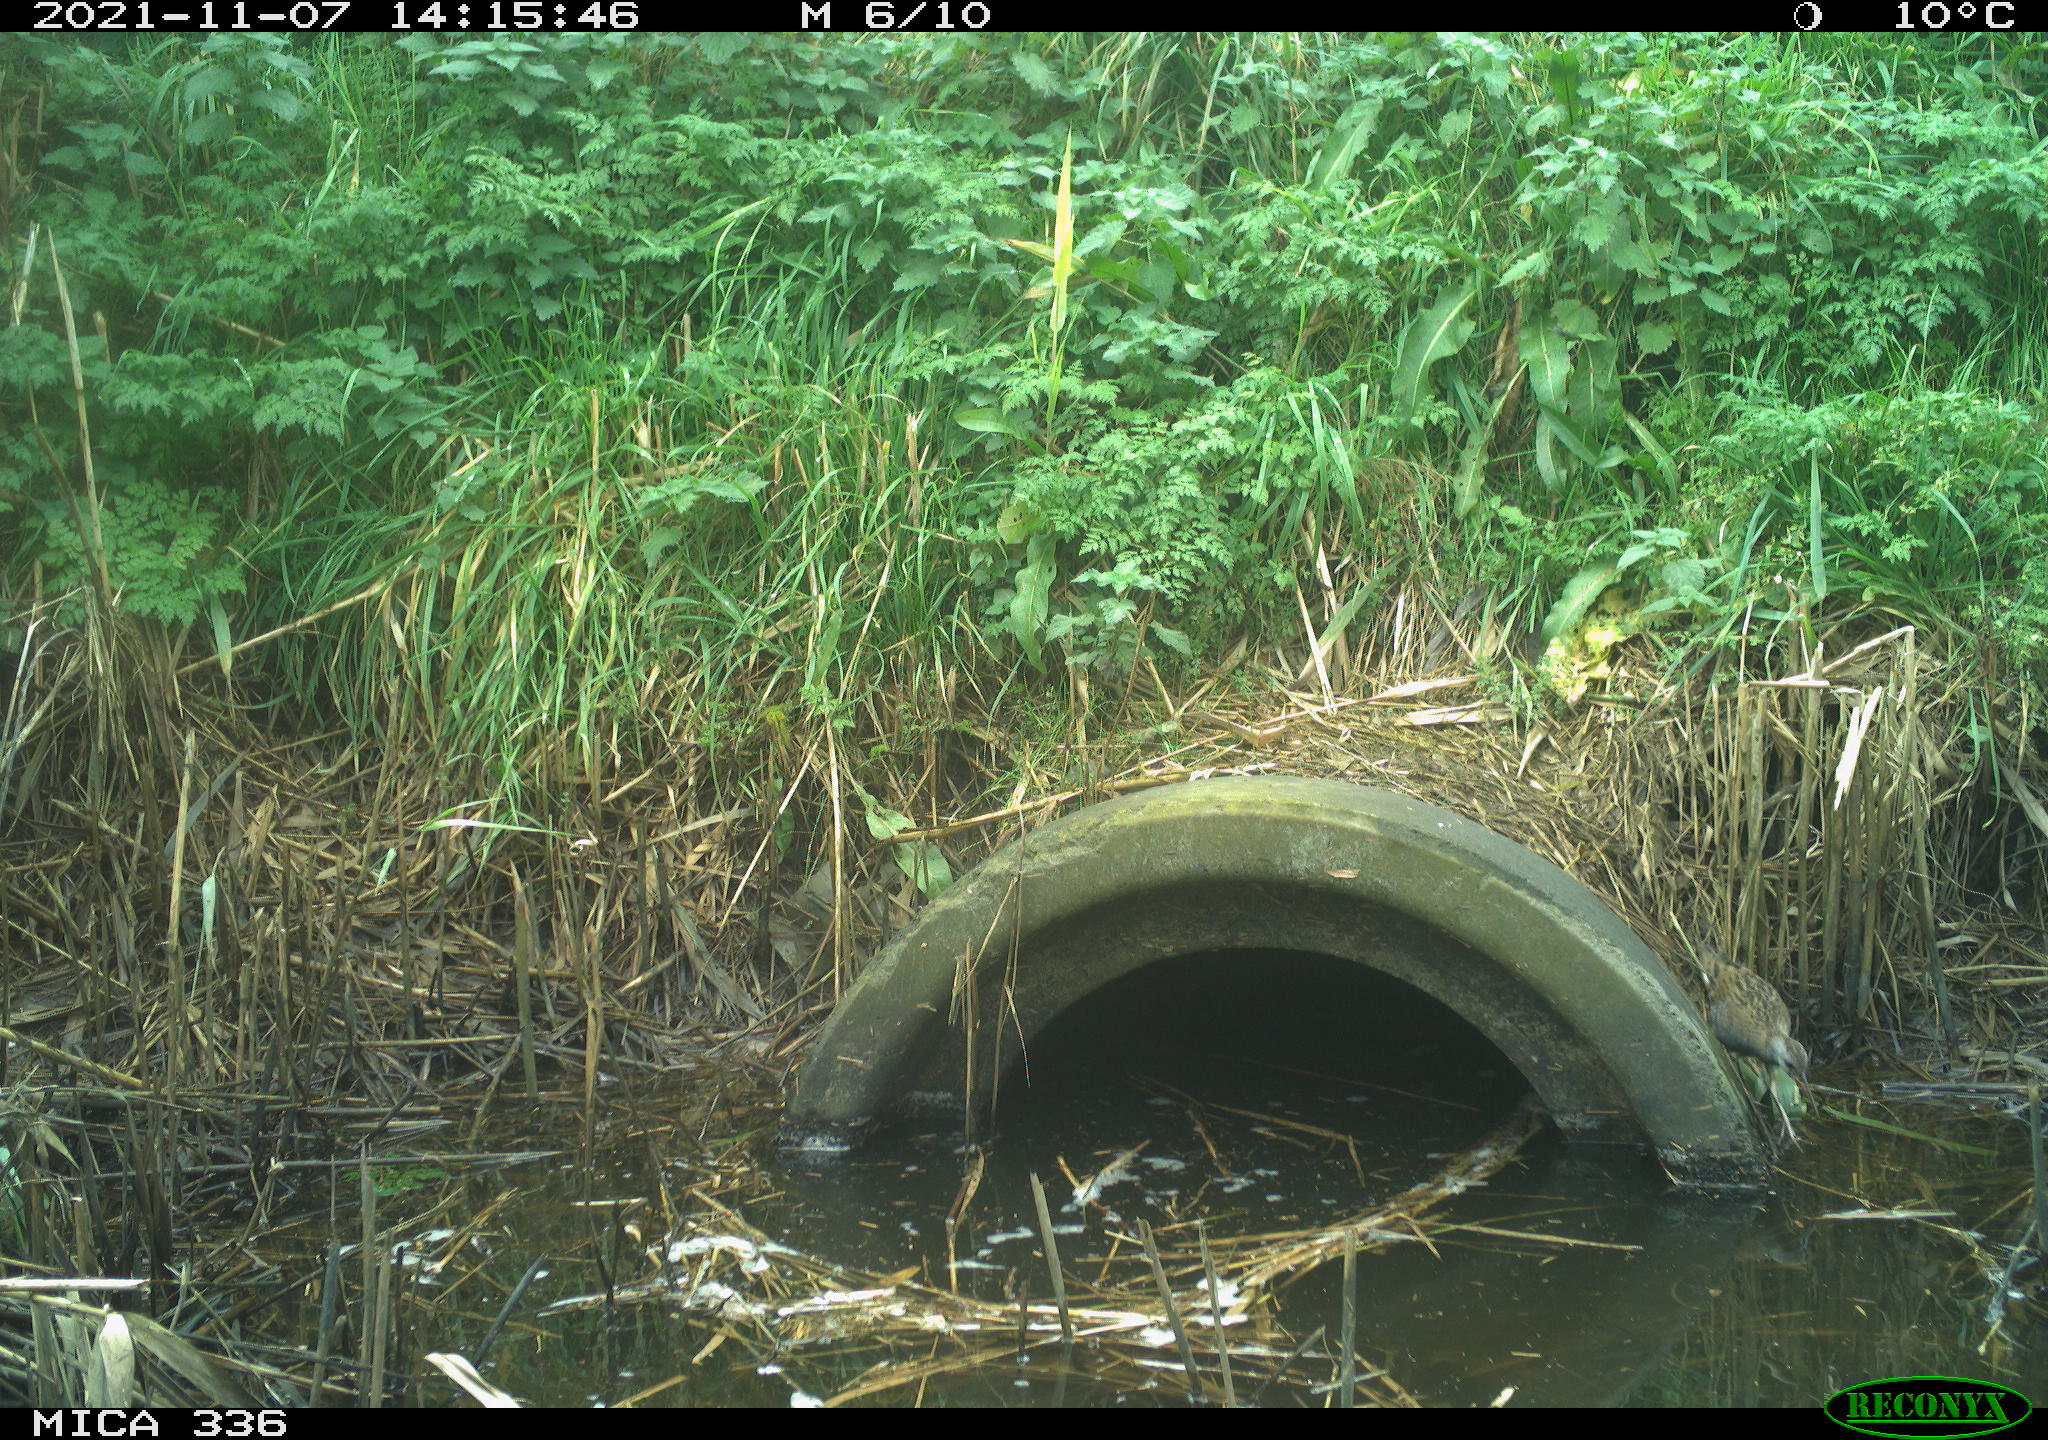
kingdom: Animalia
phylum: Chordata
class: Aves
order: Gruiformes
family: Rallidae
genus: Gallinula
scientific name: Gallinula chloropus
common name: Common moorhen
